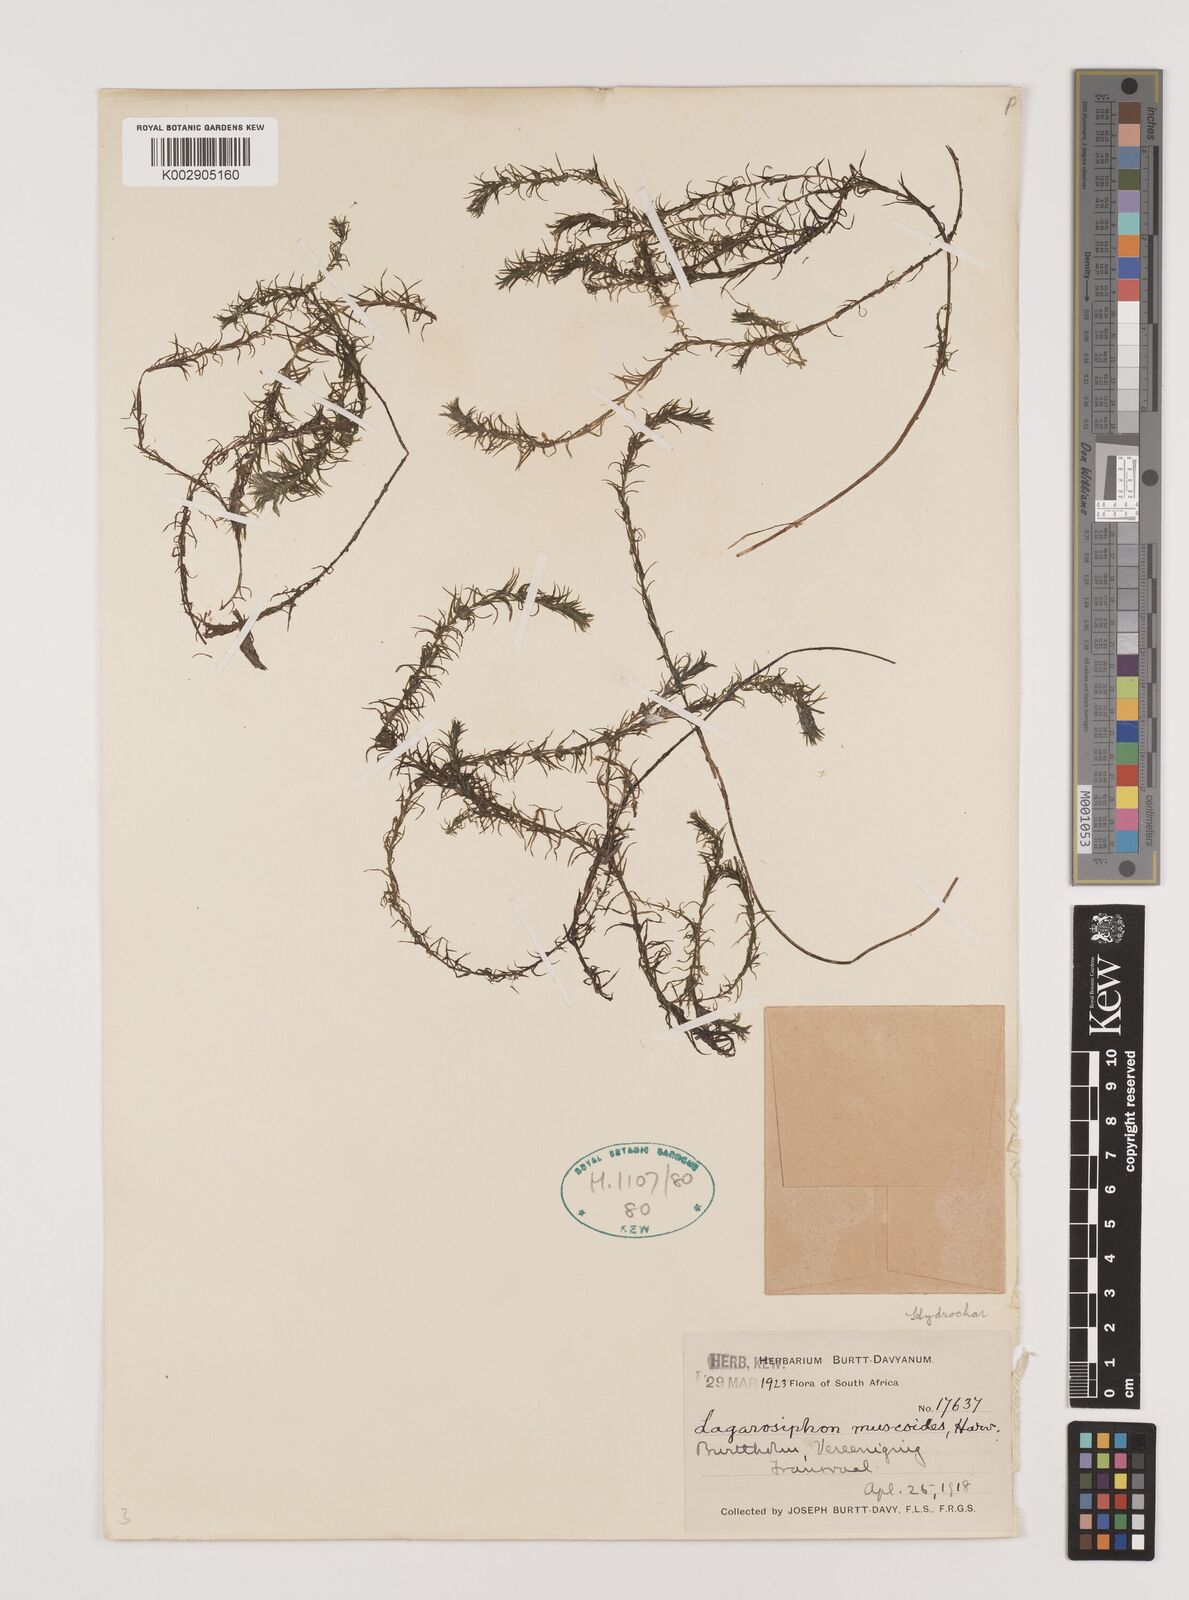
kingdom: Plantae
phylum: Tracheophyta
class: Liliopsida
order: Alismatales
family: Hydrocharitaceae
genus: Lagarosiphon
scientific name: Lagarosiphon muscoides
